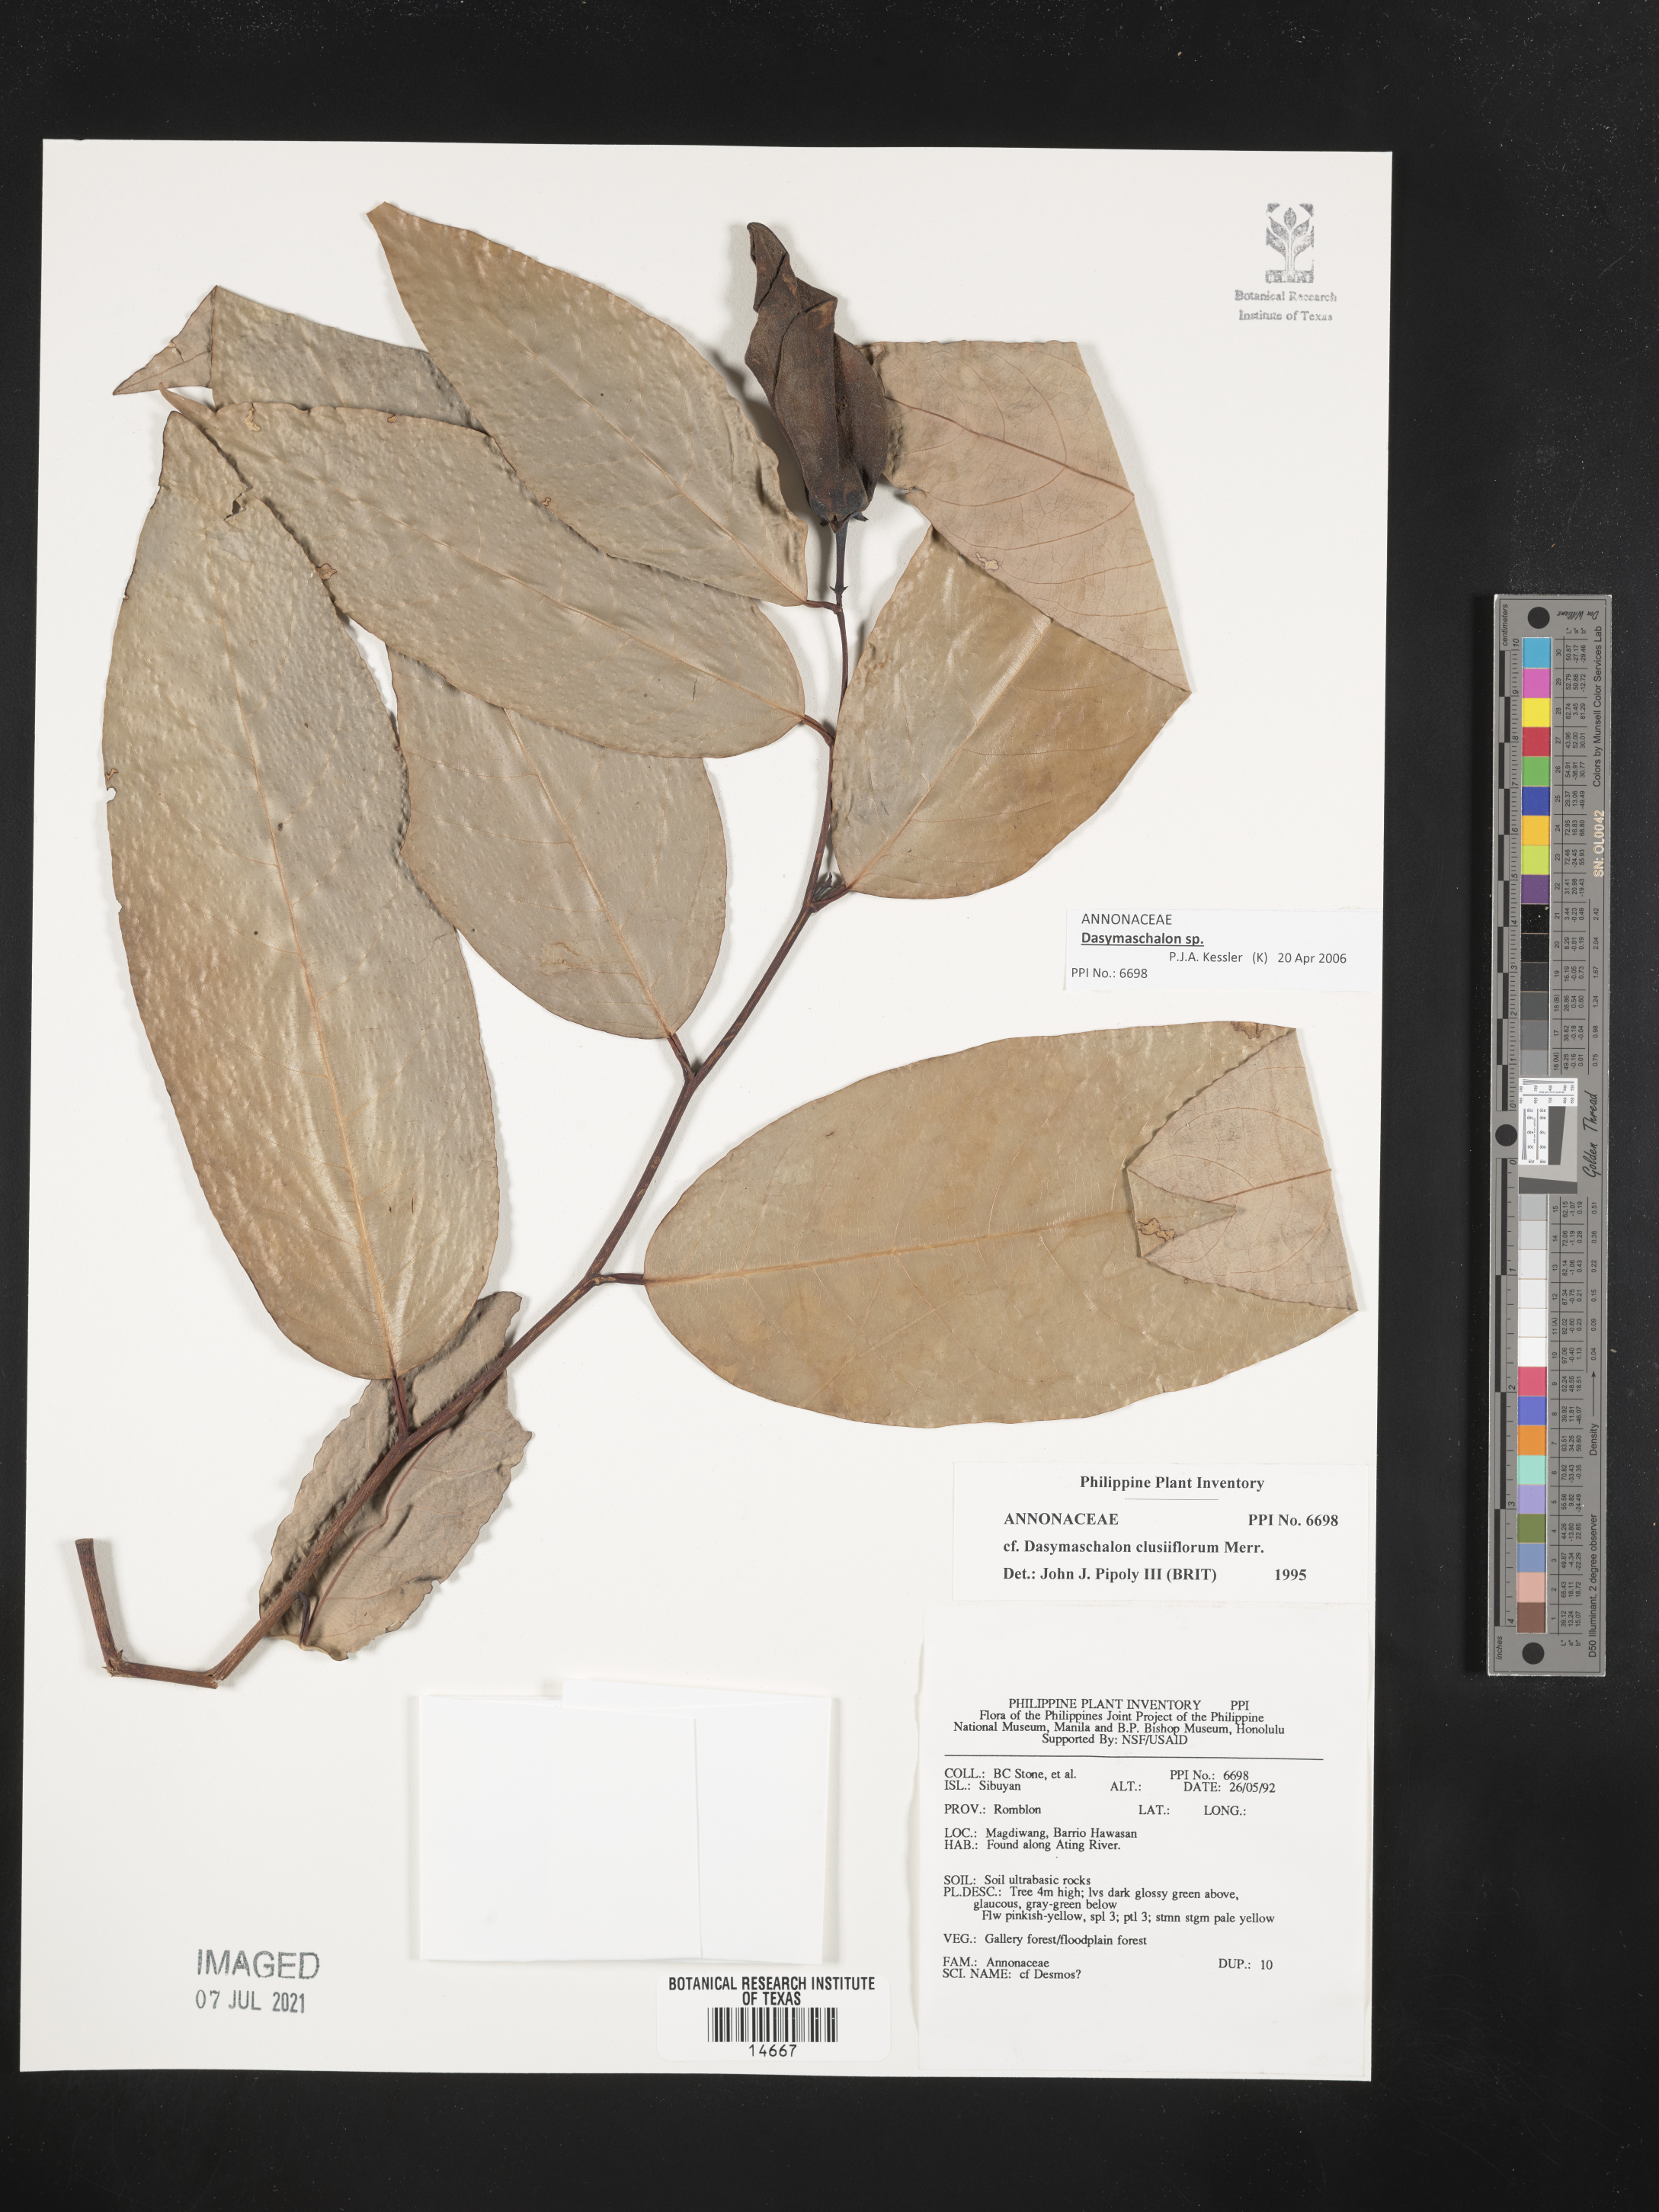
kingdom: Plantae
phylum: Tracheophyta
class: Magnoliopsida
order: Magnoliales
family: Annonaceae
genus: Dasymaschalon
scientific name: Dasymaschalon clusiflorum
